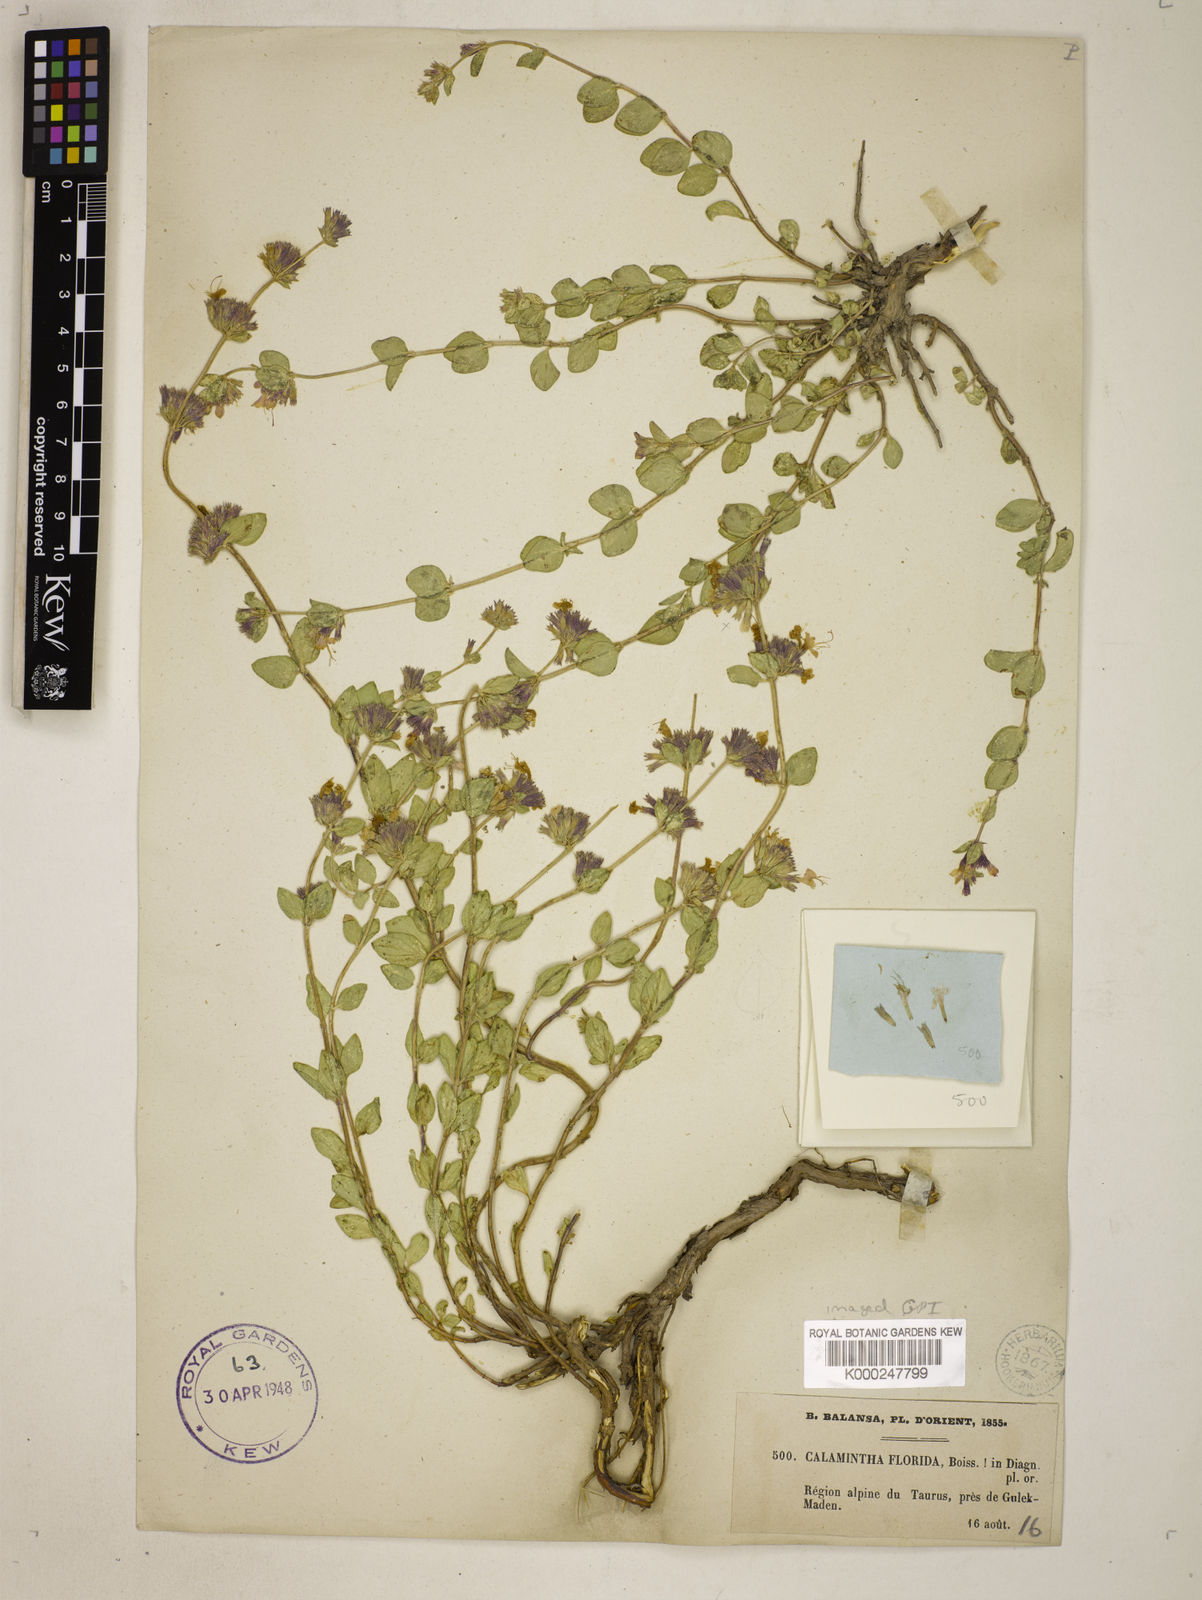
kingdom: Plantae
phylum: Tracheophyta
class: Magnoliopsida
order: Lamiales
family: Lamiaceae
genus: Cyclotrichium
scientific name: Cyclotrichium origanifolium
